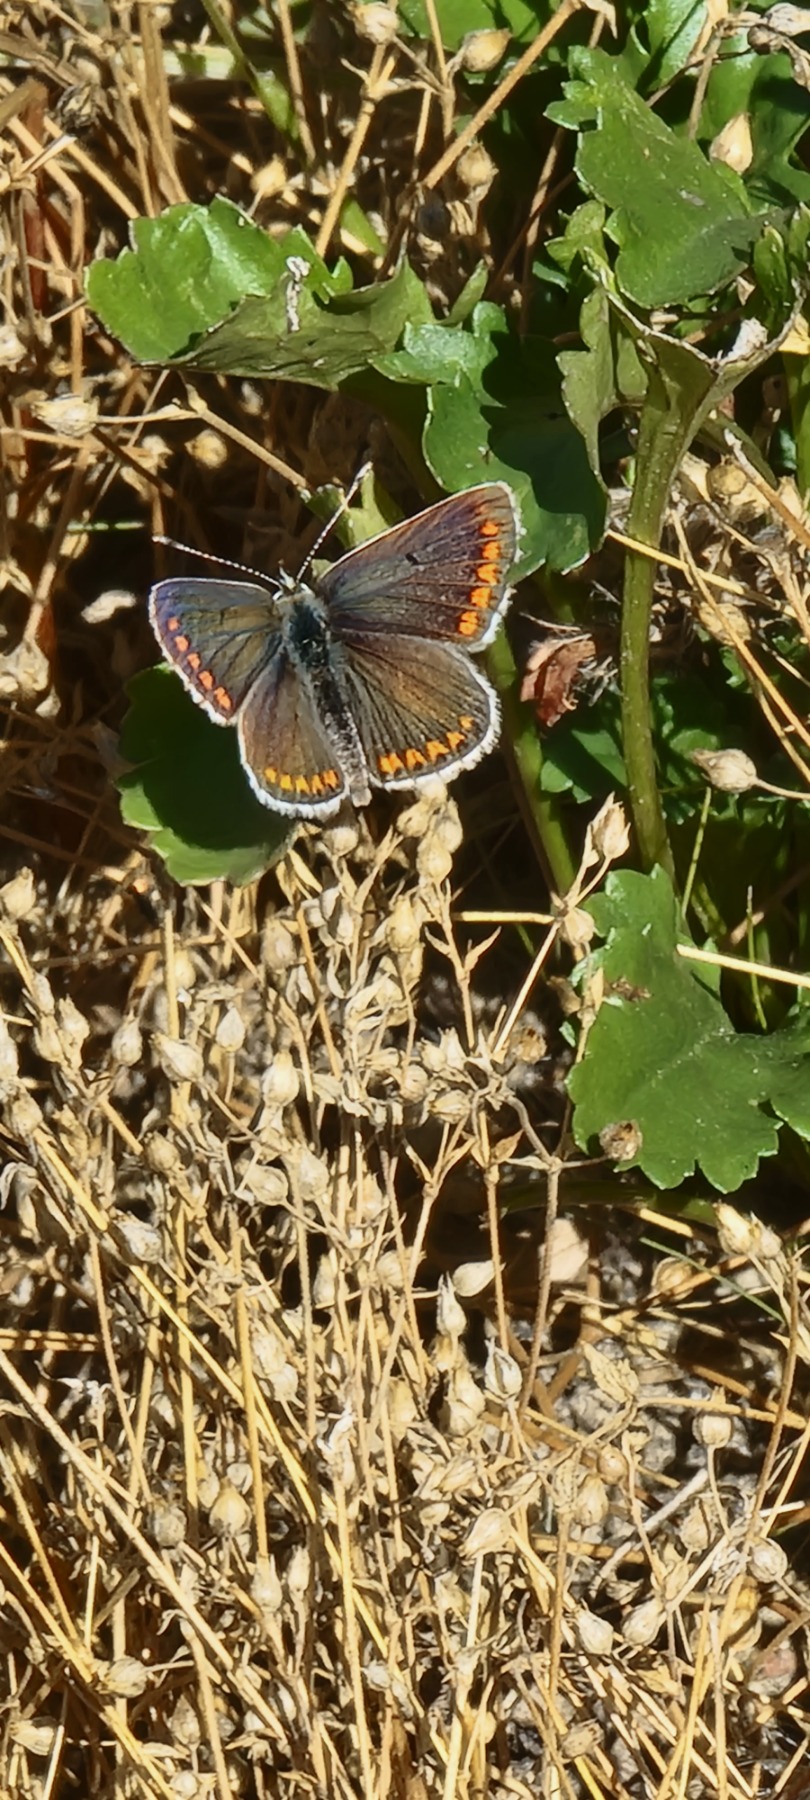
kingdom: Animalia
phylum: Arthropoda
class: Insecta
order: Lepidoptera
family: Lycaenidae
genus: Aricia
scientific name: Aricia agestis
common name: Rødplettet blåfugl
